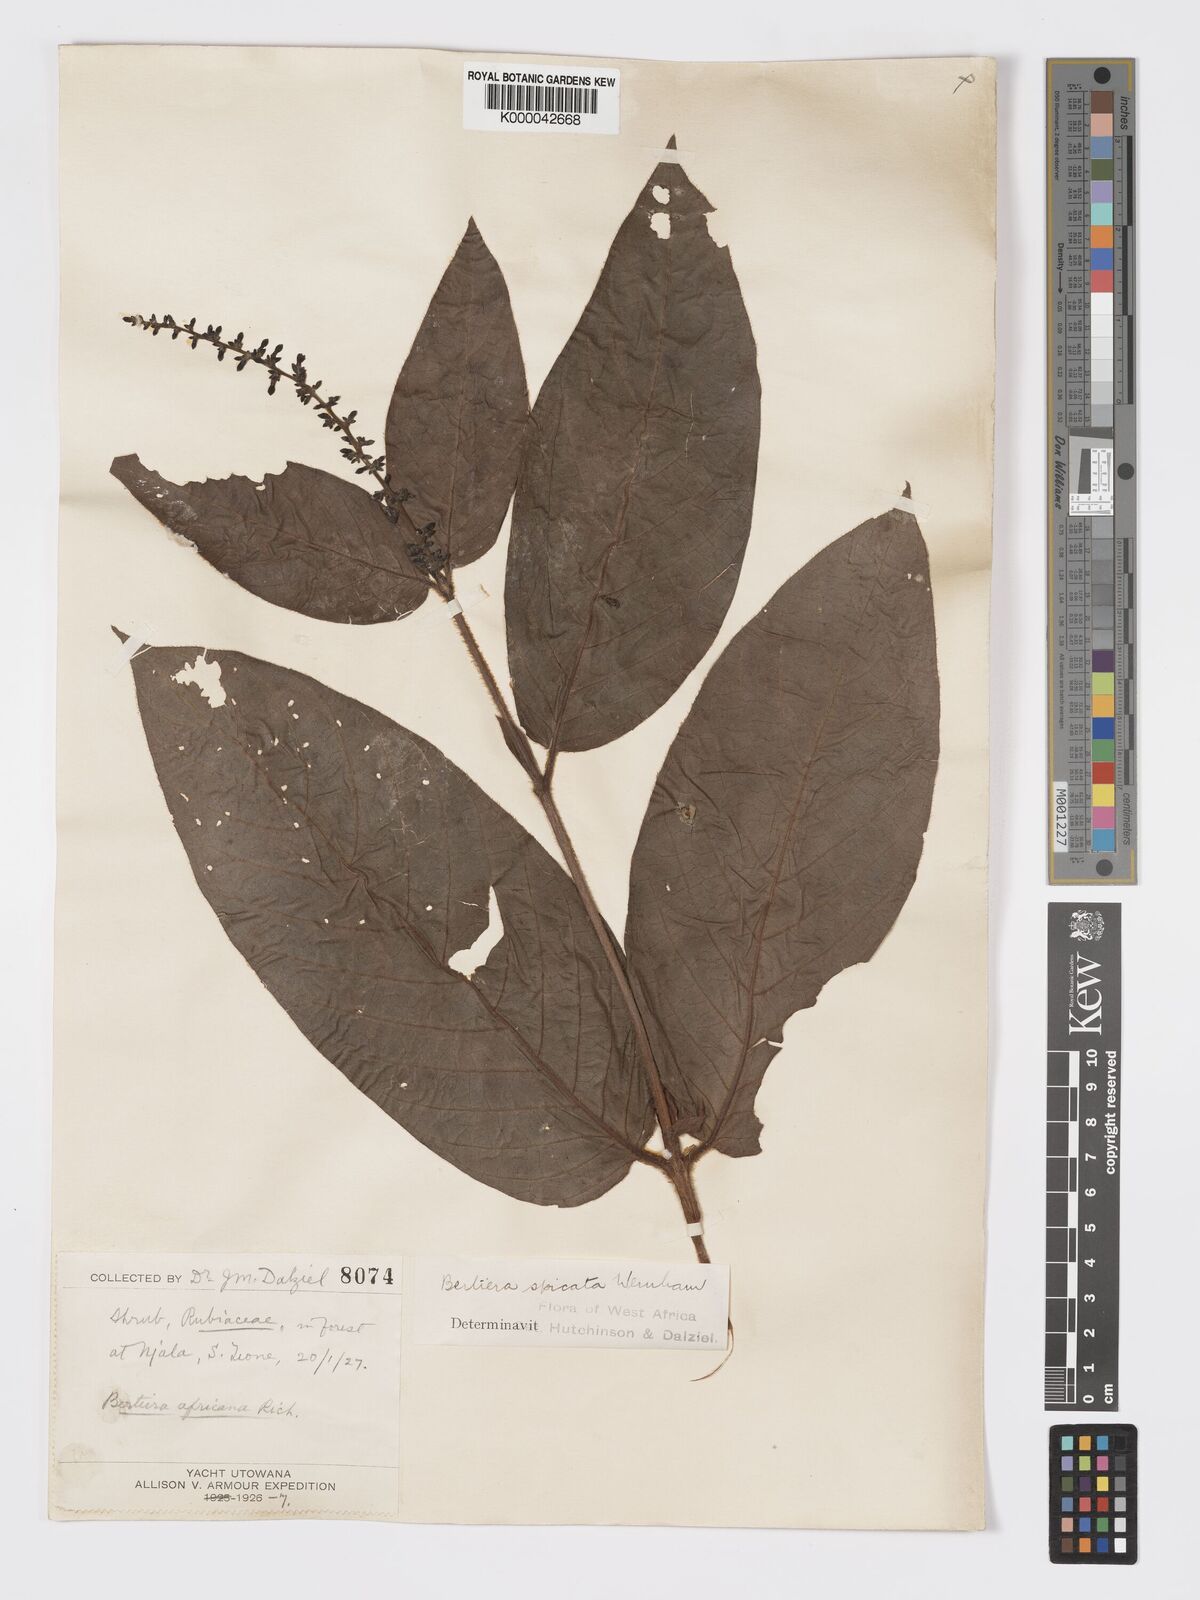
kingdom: Plantae
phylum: Tracheophyta
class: Magnoliopsida
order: Gentianales
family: Rubiaceae
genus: Bertiera
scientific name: Bertiera
